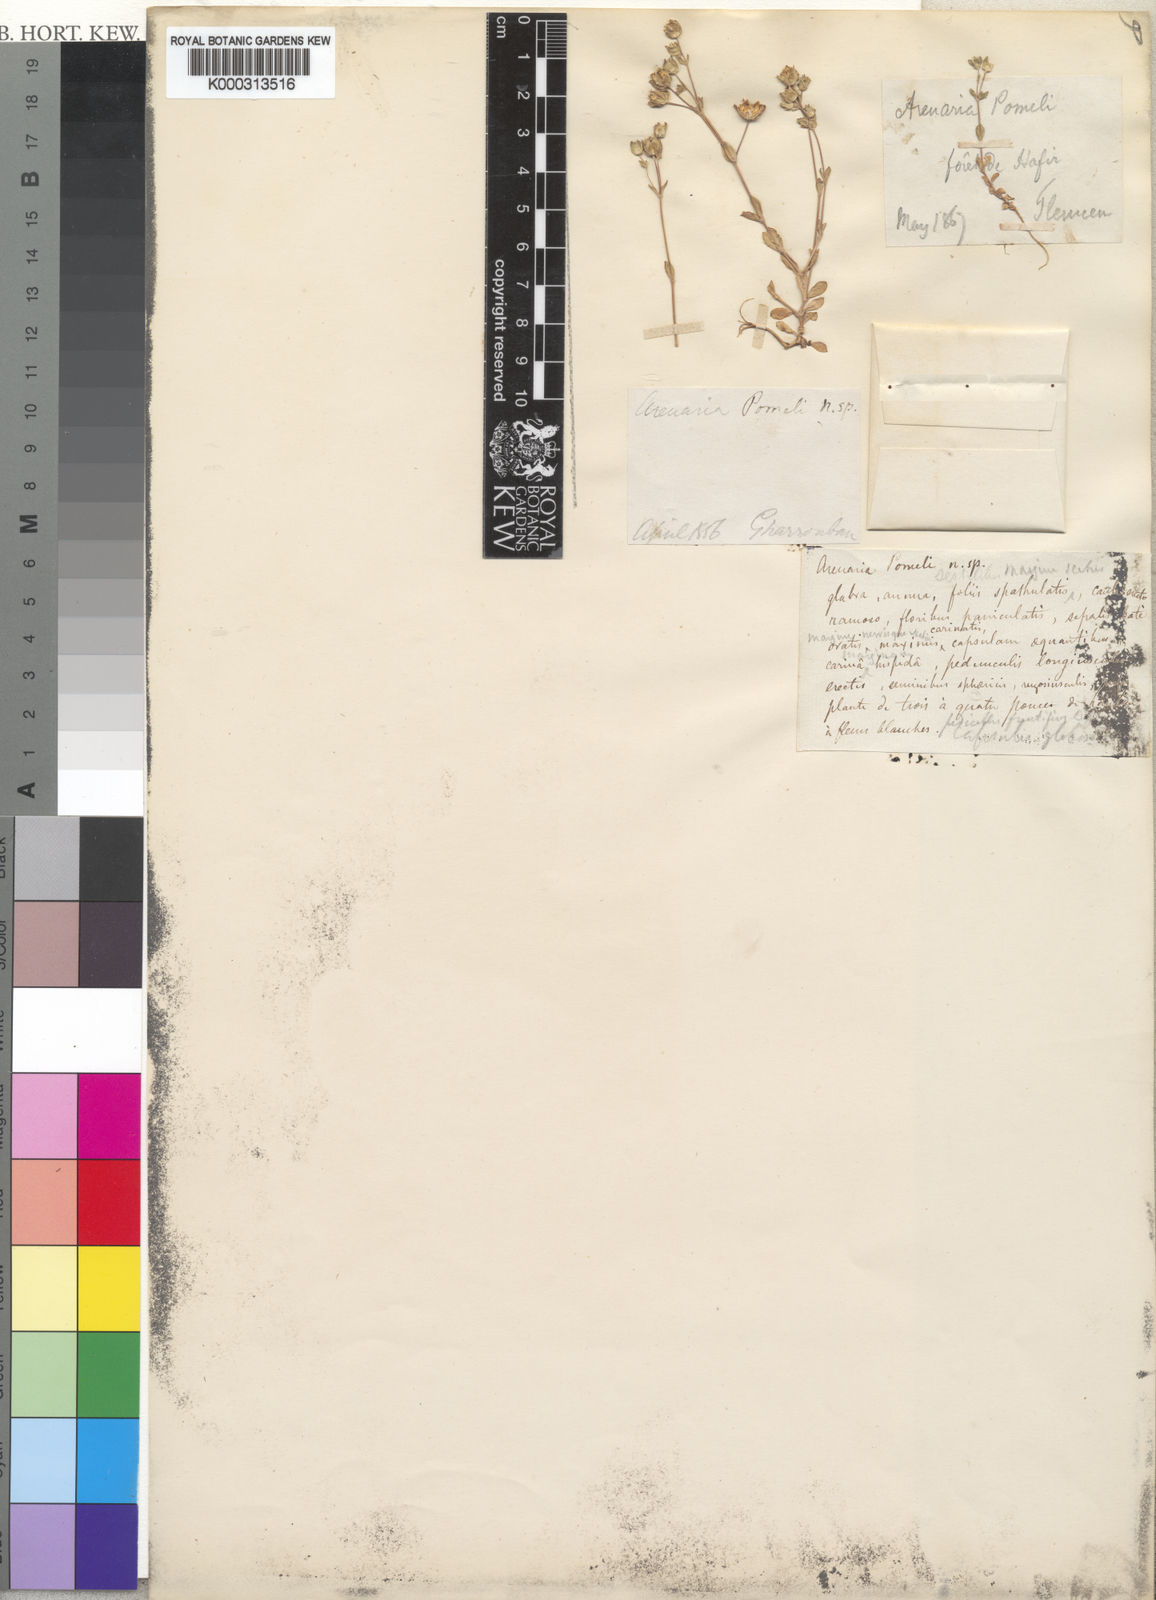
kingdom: Plantae
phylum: Tracheophyta
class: Magnoliopsida
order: Caryophyllales
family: Caryophyllaceae
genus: Arenaria
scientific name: Arenaria pomelii
